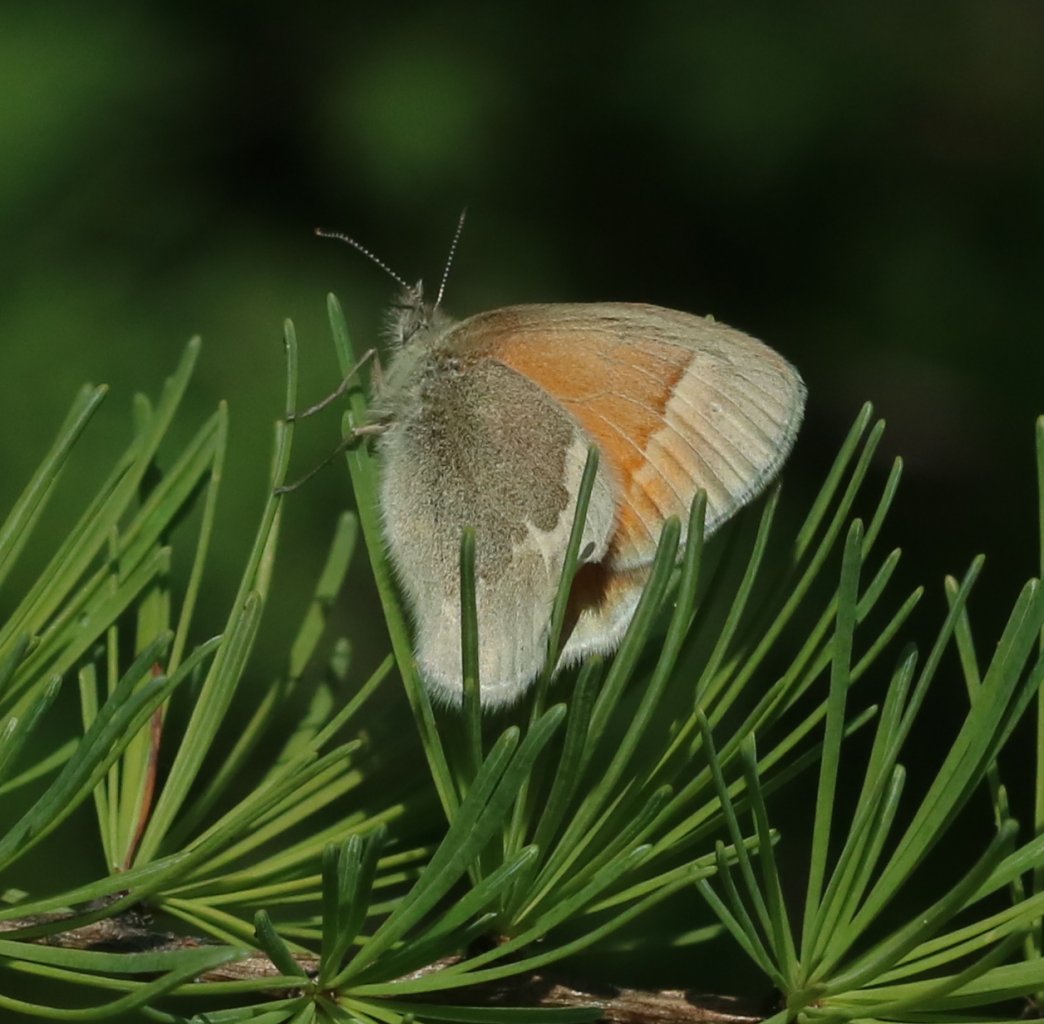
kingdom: Animalia
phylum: Arthropoda
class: Insecta
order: Lepidoptera
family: Nymphalidae
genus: Coenonympha
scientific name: Coenonympha tullia
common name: Large Heath
